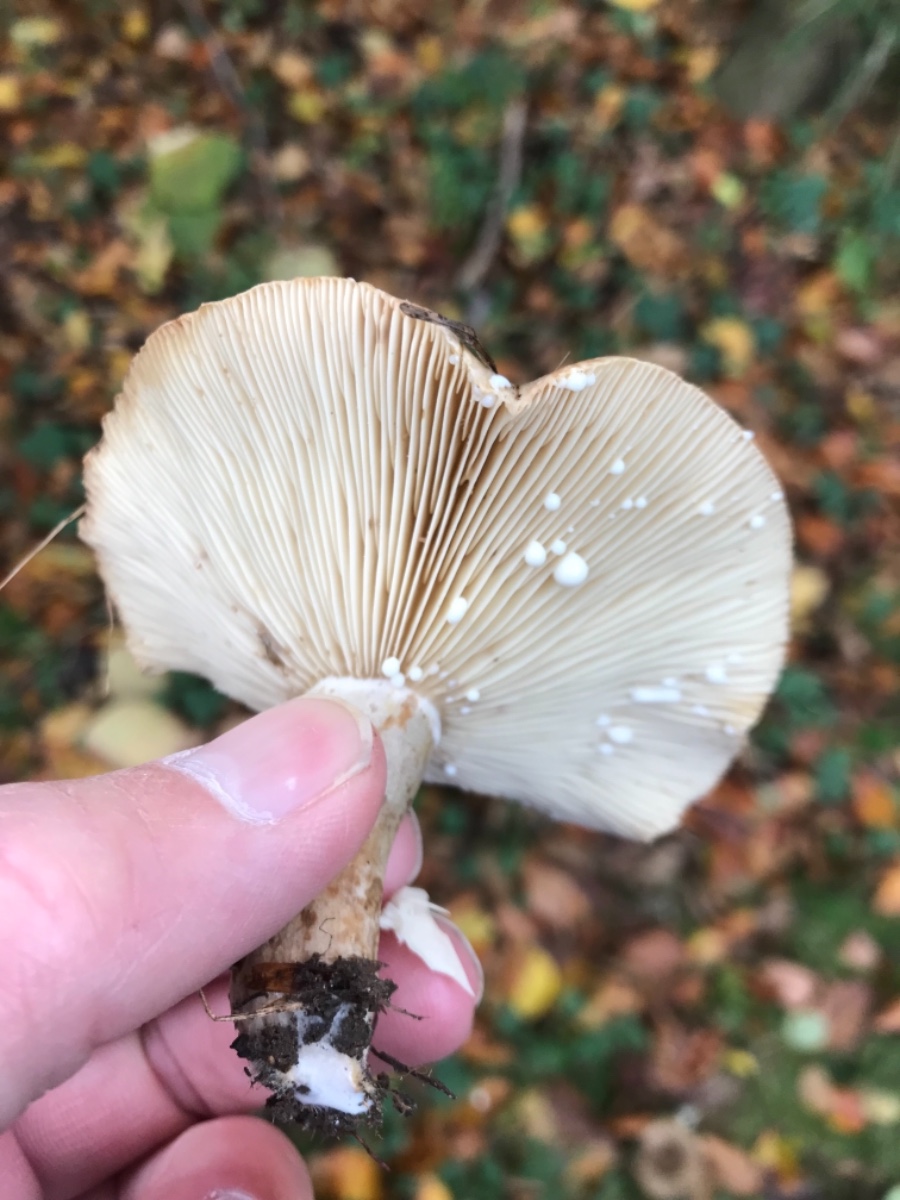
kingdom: Fungi
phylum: Basidiomycota
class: Agaricomycetes
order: Russulales
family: Russulaceae
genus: Lactarius
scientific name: Lactarius fluens
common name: lysrandet mælkehat
